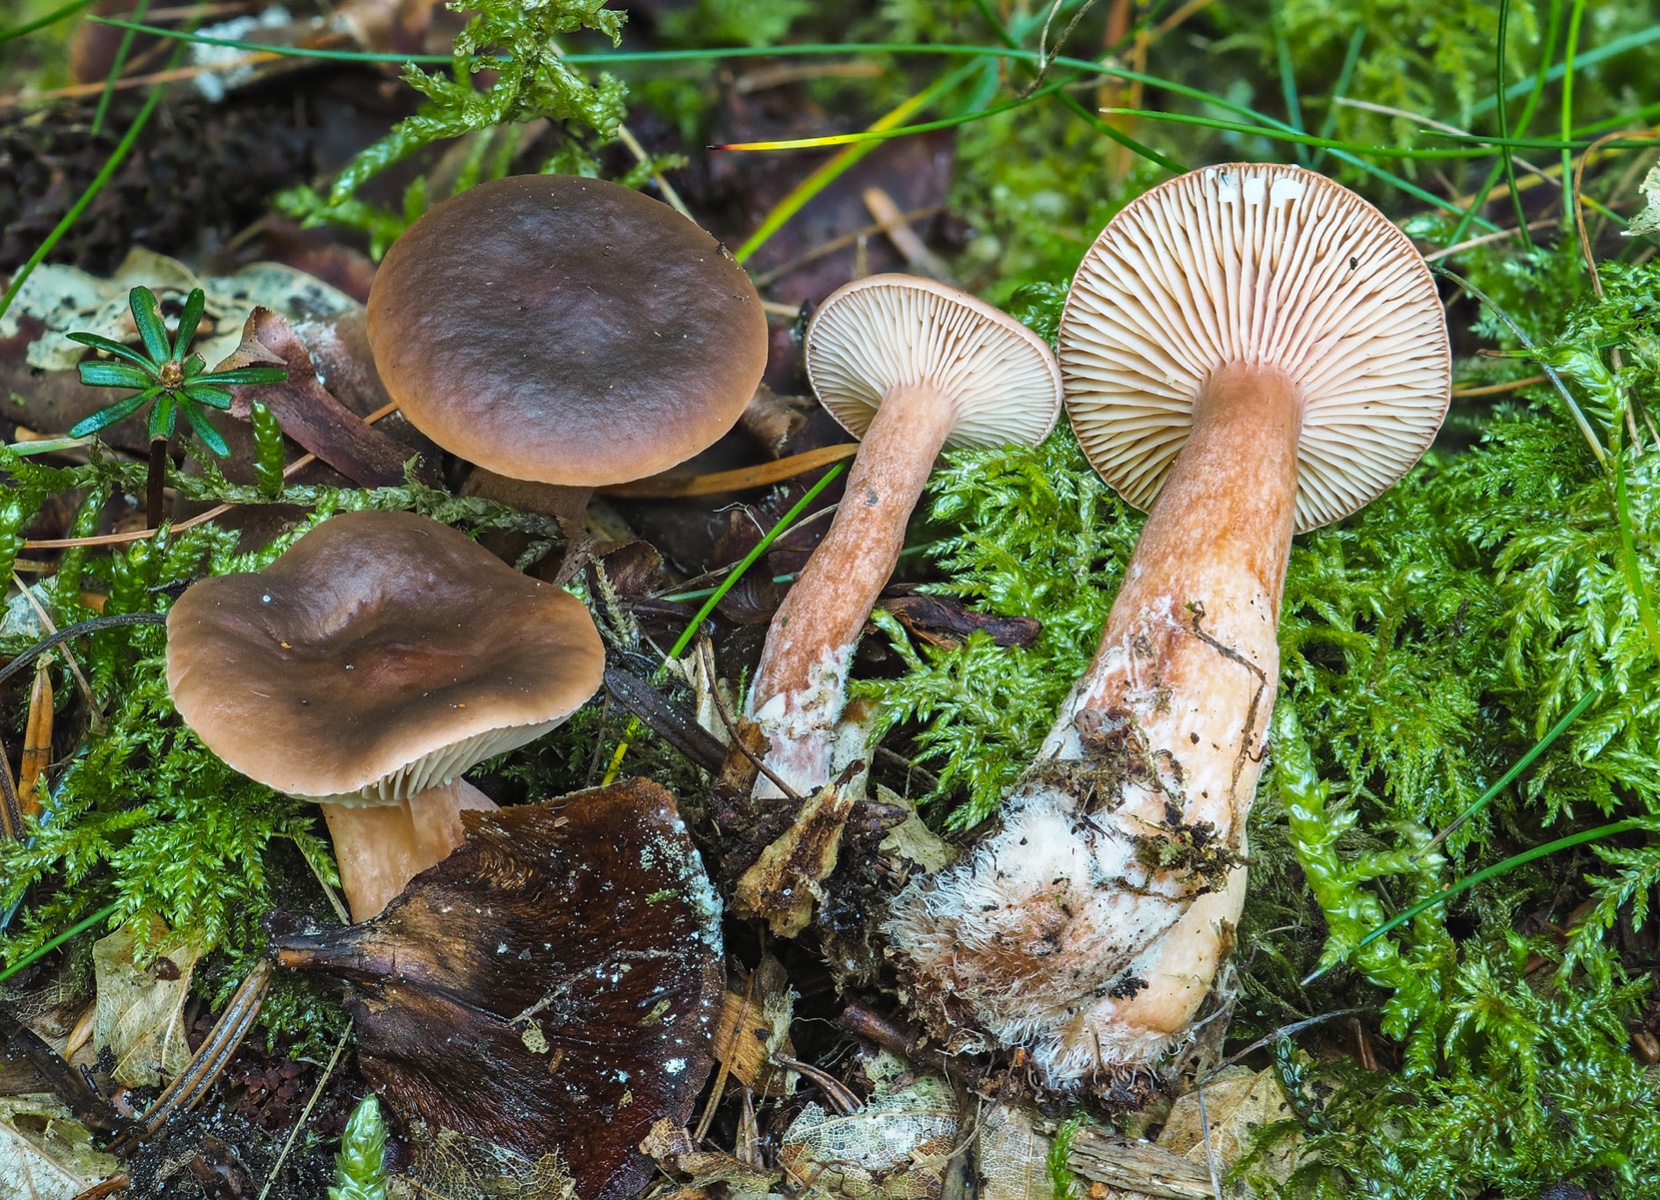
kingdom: Fungi
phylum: Basidiomycota
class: Agaricomycetes
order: Russulales
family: Russulaceae
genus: Lactarius
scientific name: Lactarius badiosanguineus
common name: brunrød mælkehat
